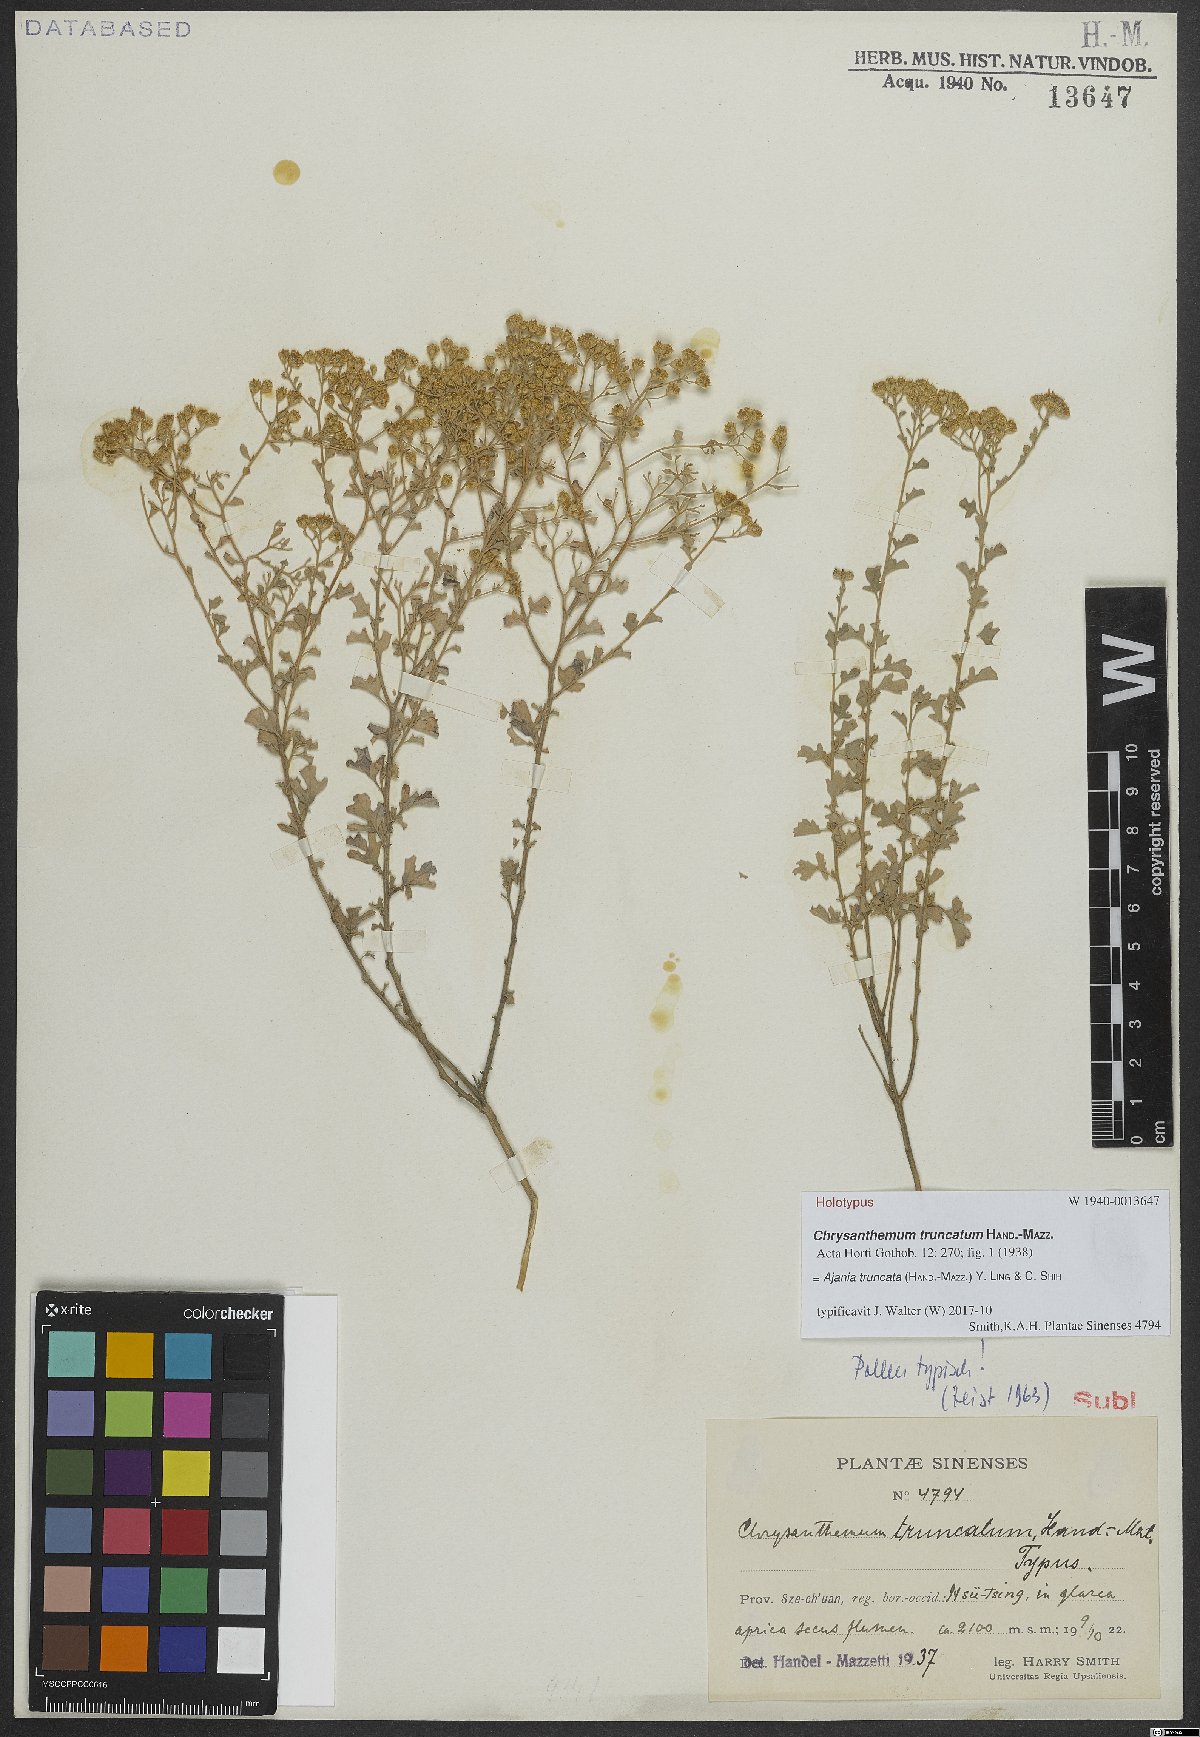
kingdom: Plantae
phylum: Tracheophyta
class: Magnoliopsida
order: Asterales
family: Asteraceae
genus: Ajania
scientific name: Ajania truncata
